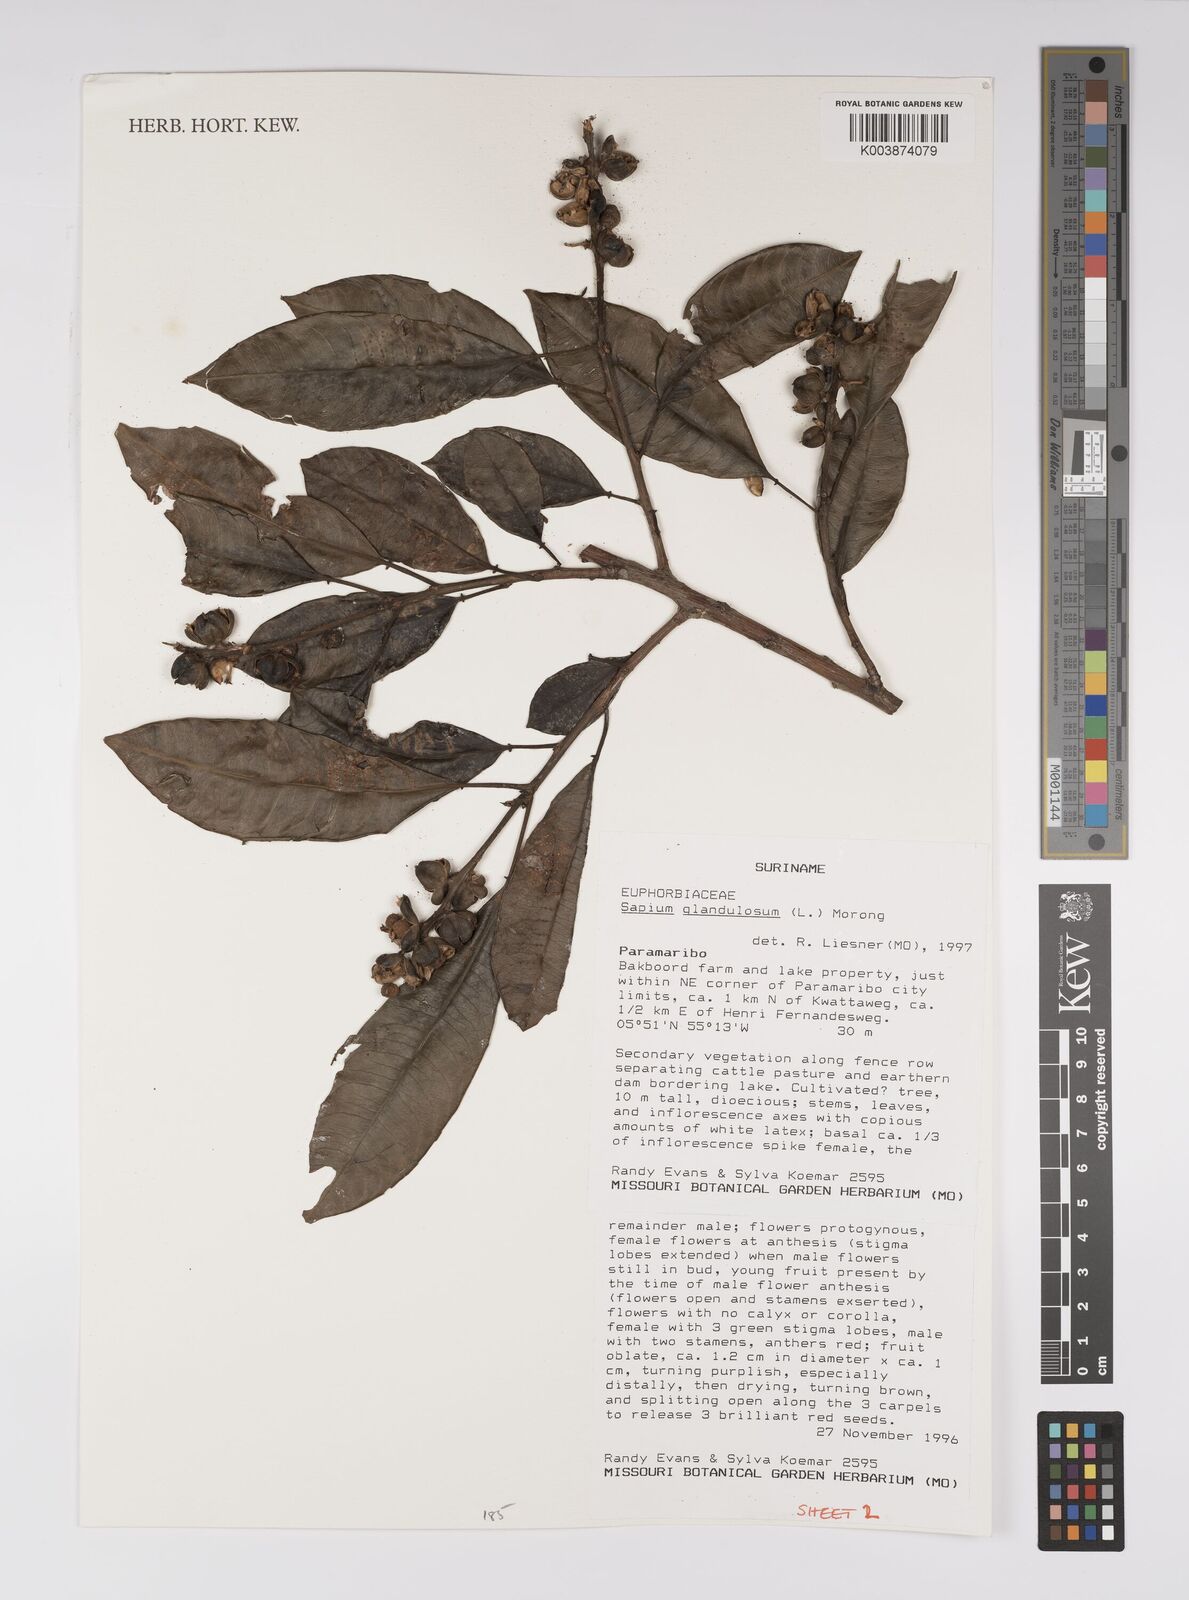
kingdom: Plantae
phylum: Tracheophyta
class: Magnoliopsida
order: Malpighiales
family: Euphorbiaceae
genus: Sapium
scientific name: Sapium glandulosum
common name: Milktree
